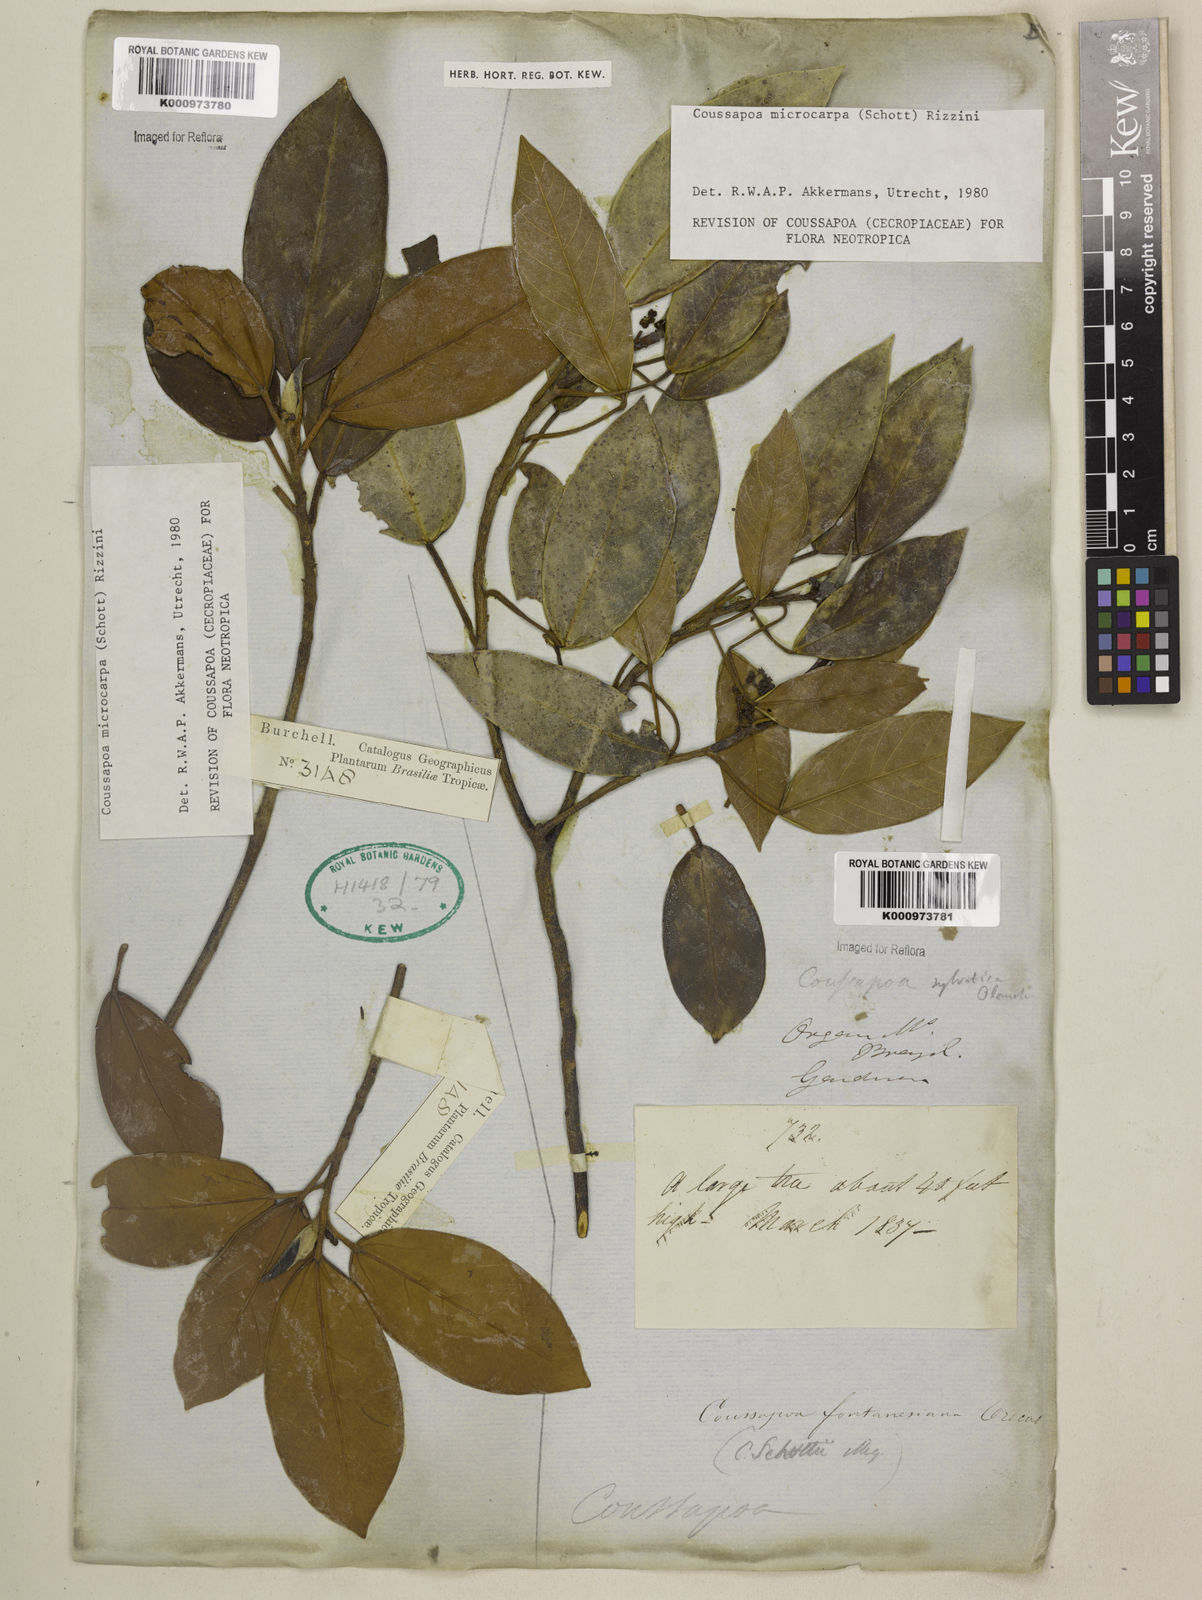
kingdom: Plantae
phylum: Tracheophyta
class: Magnoliopsida
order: Rosales
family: Urticaceae
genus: Coussapoa
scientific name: Coussapoa microcarpa
